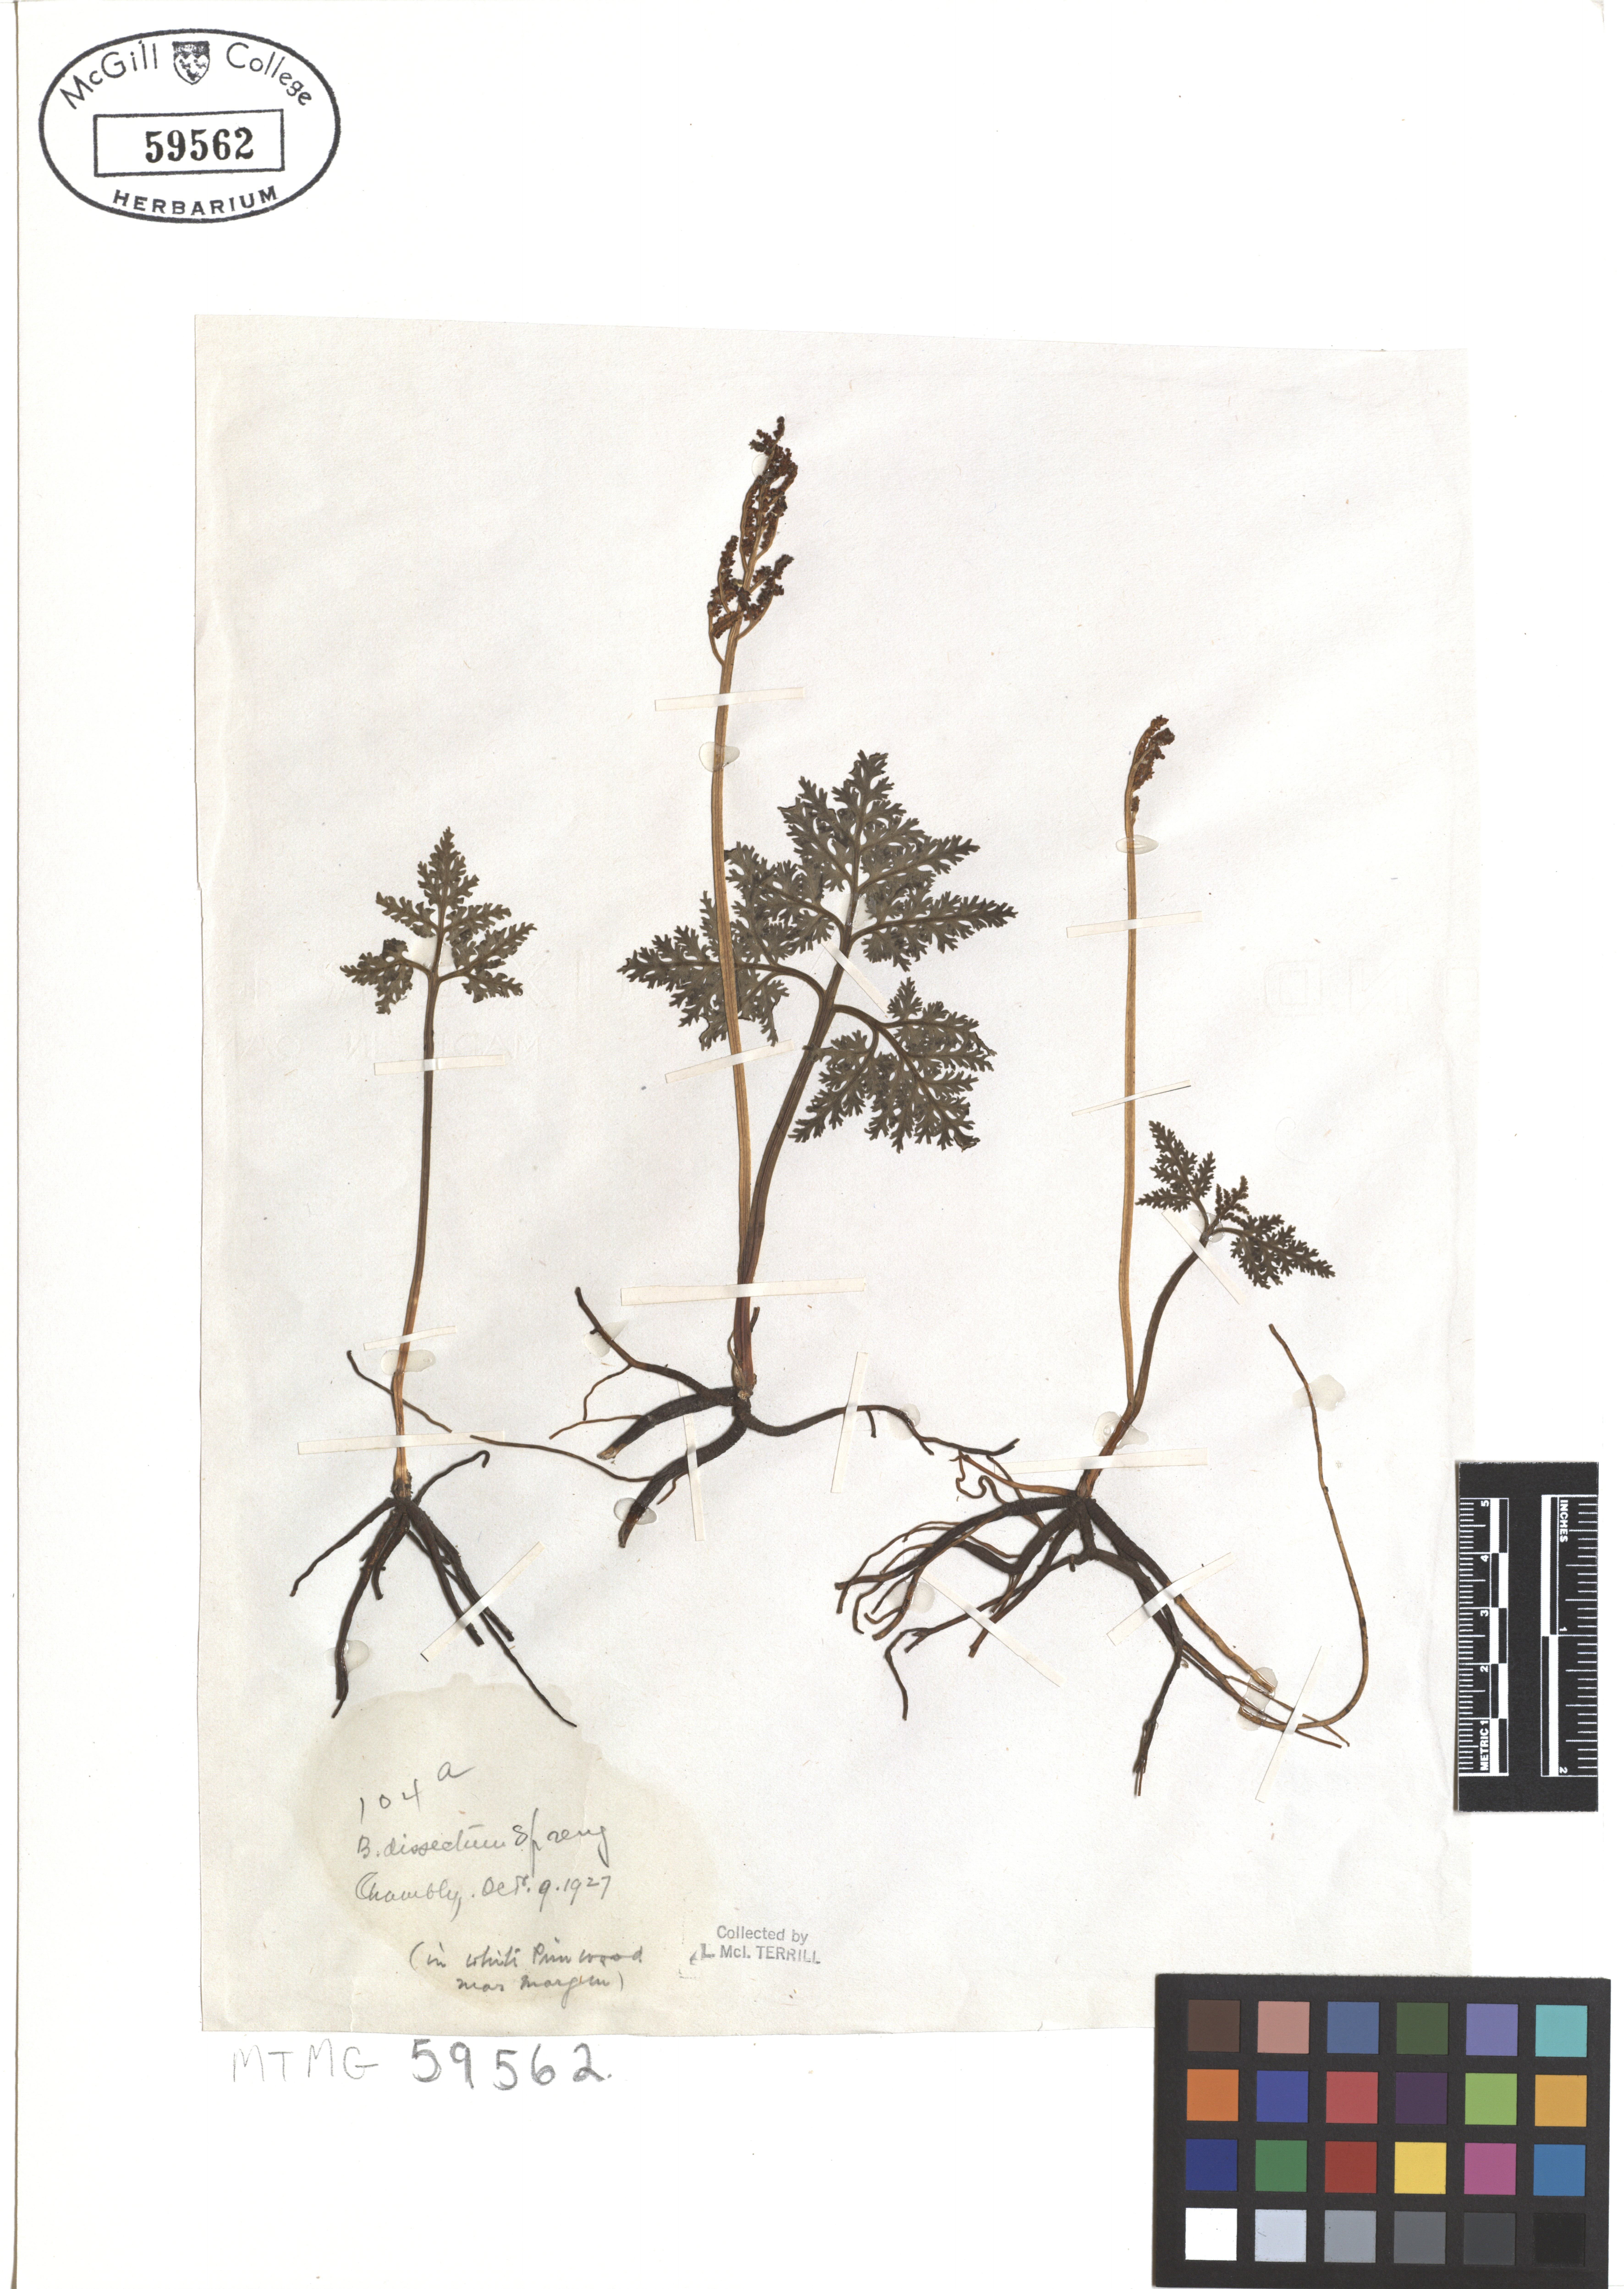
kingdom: Plantae
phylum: Tracheophyta
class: Polypodiopsida
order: Ophioglossales
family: Ophioglossaceae
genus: Sceptridium
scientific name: Sceptridium dissectum
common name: Cut-leaved grapefern
